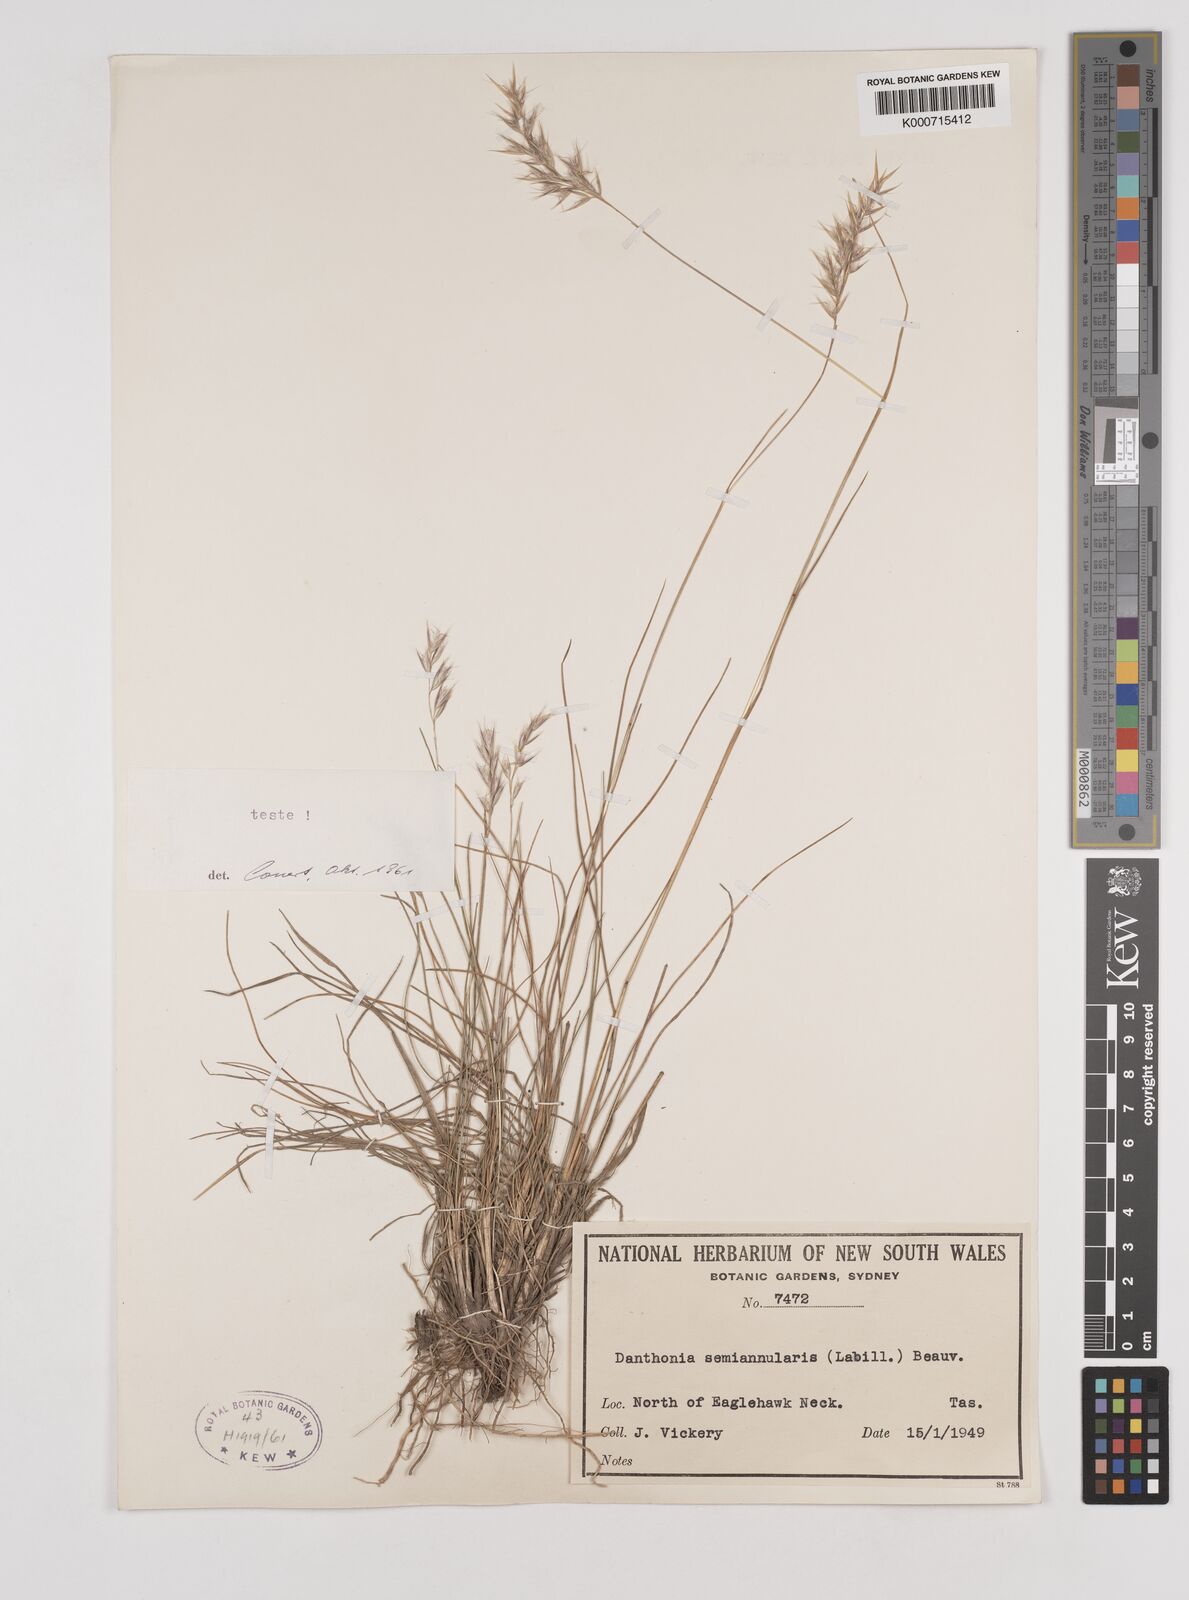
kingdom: Plantae
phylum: Tracheophyta
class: Liliopsida
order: Poales
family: Poaceae
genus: Rytidosperma
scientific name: Rytidosperma semiannulare
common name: Tasmanian wallaby grass
